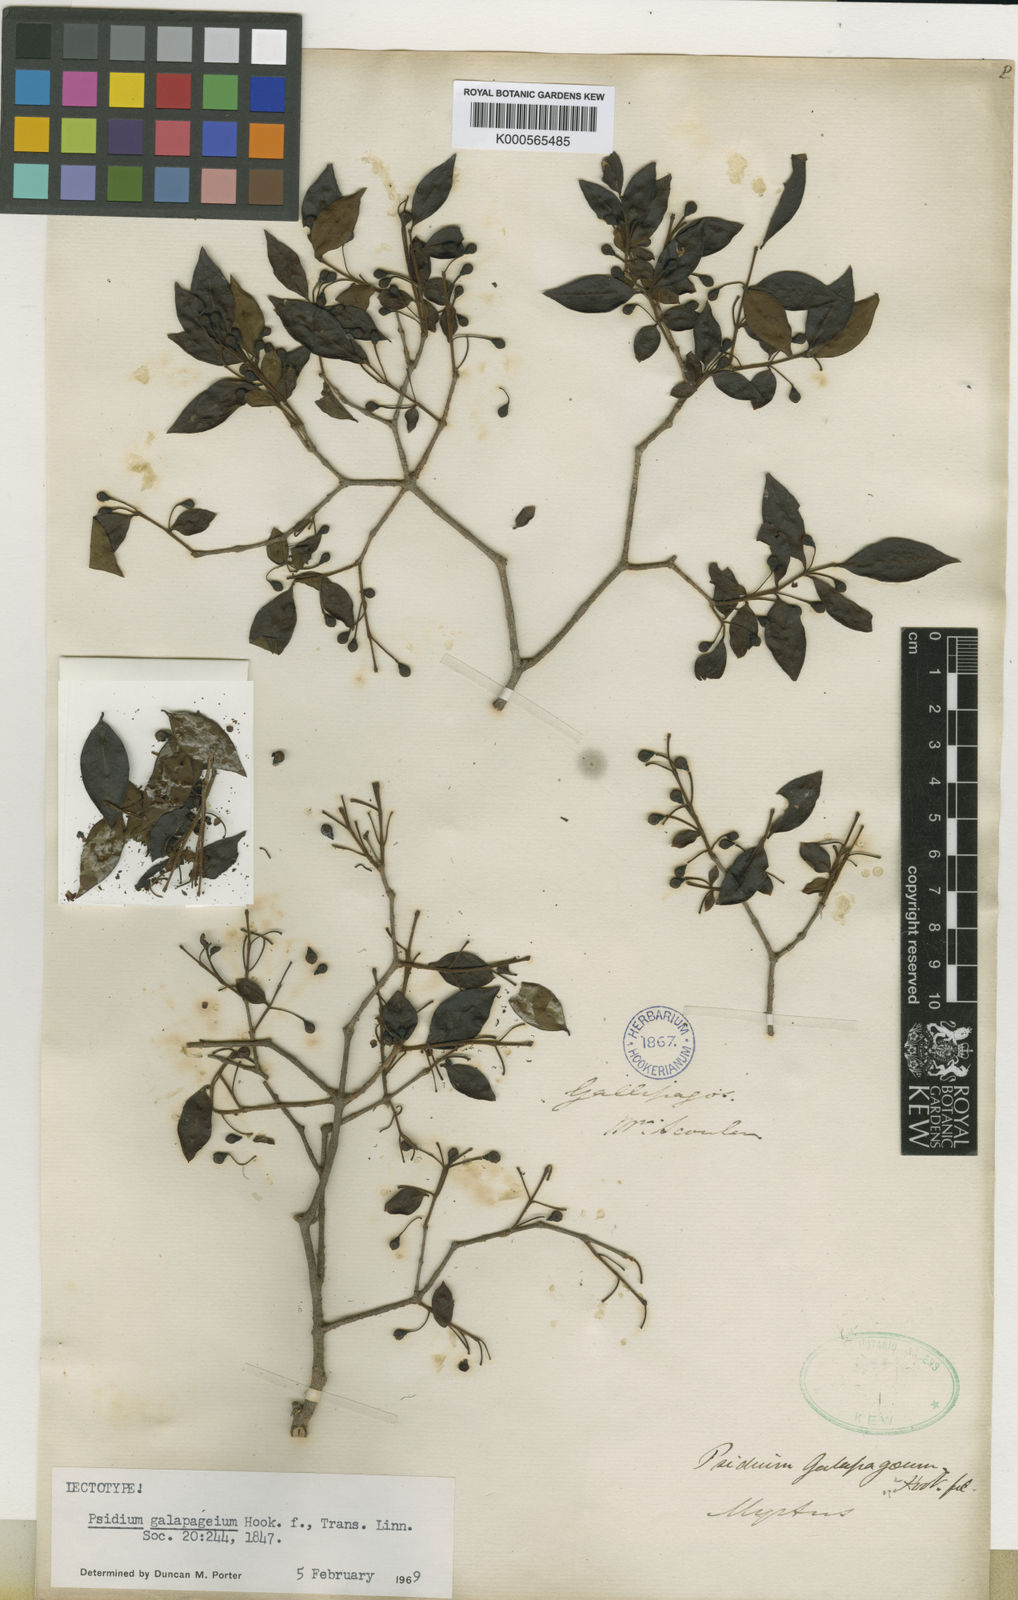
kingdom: Plantae
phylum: Tracheophyta
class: Magnoliopsida
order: Myrtales
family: Myrtaceae
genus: Psidium
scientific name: Psidium galapagaeum
